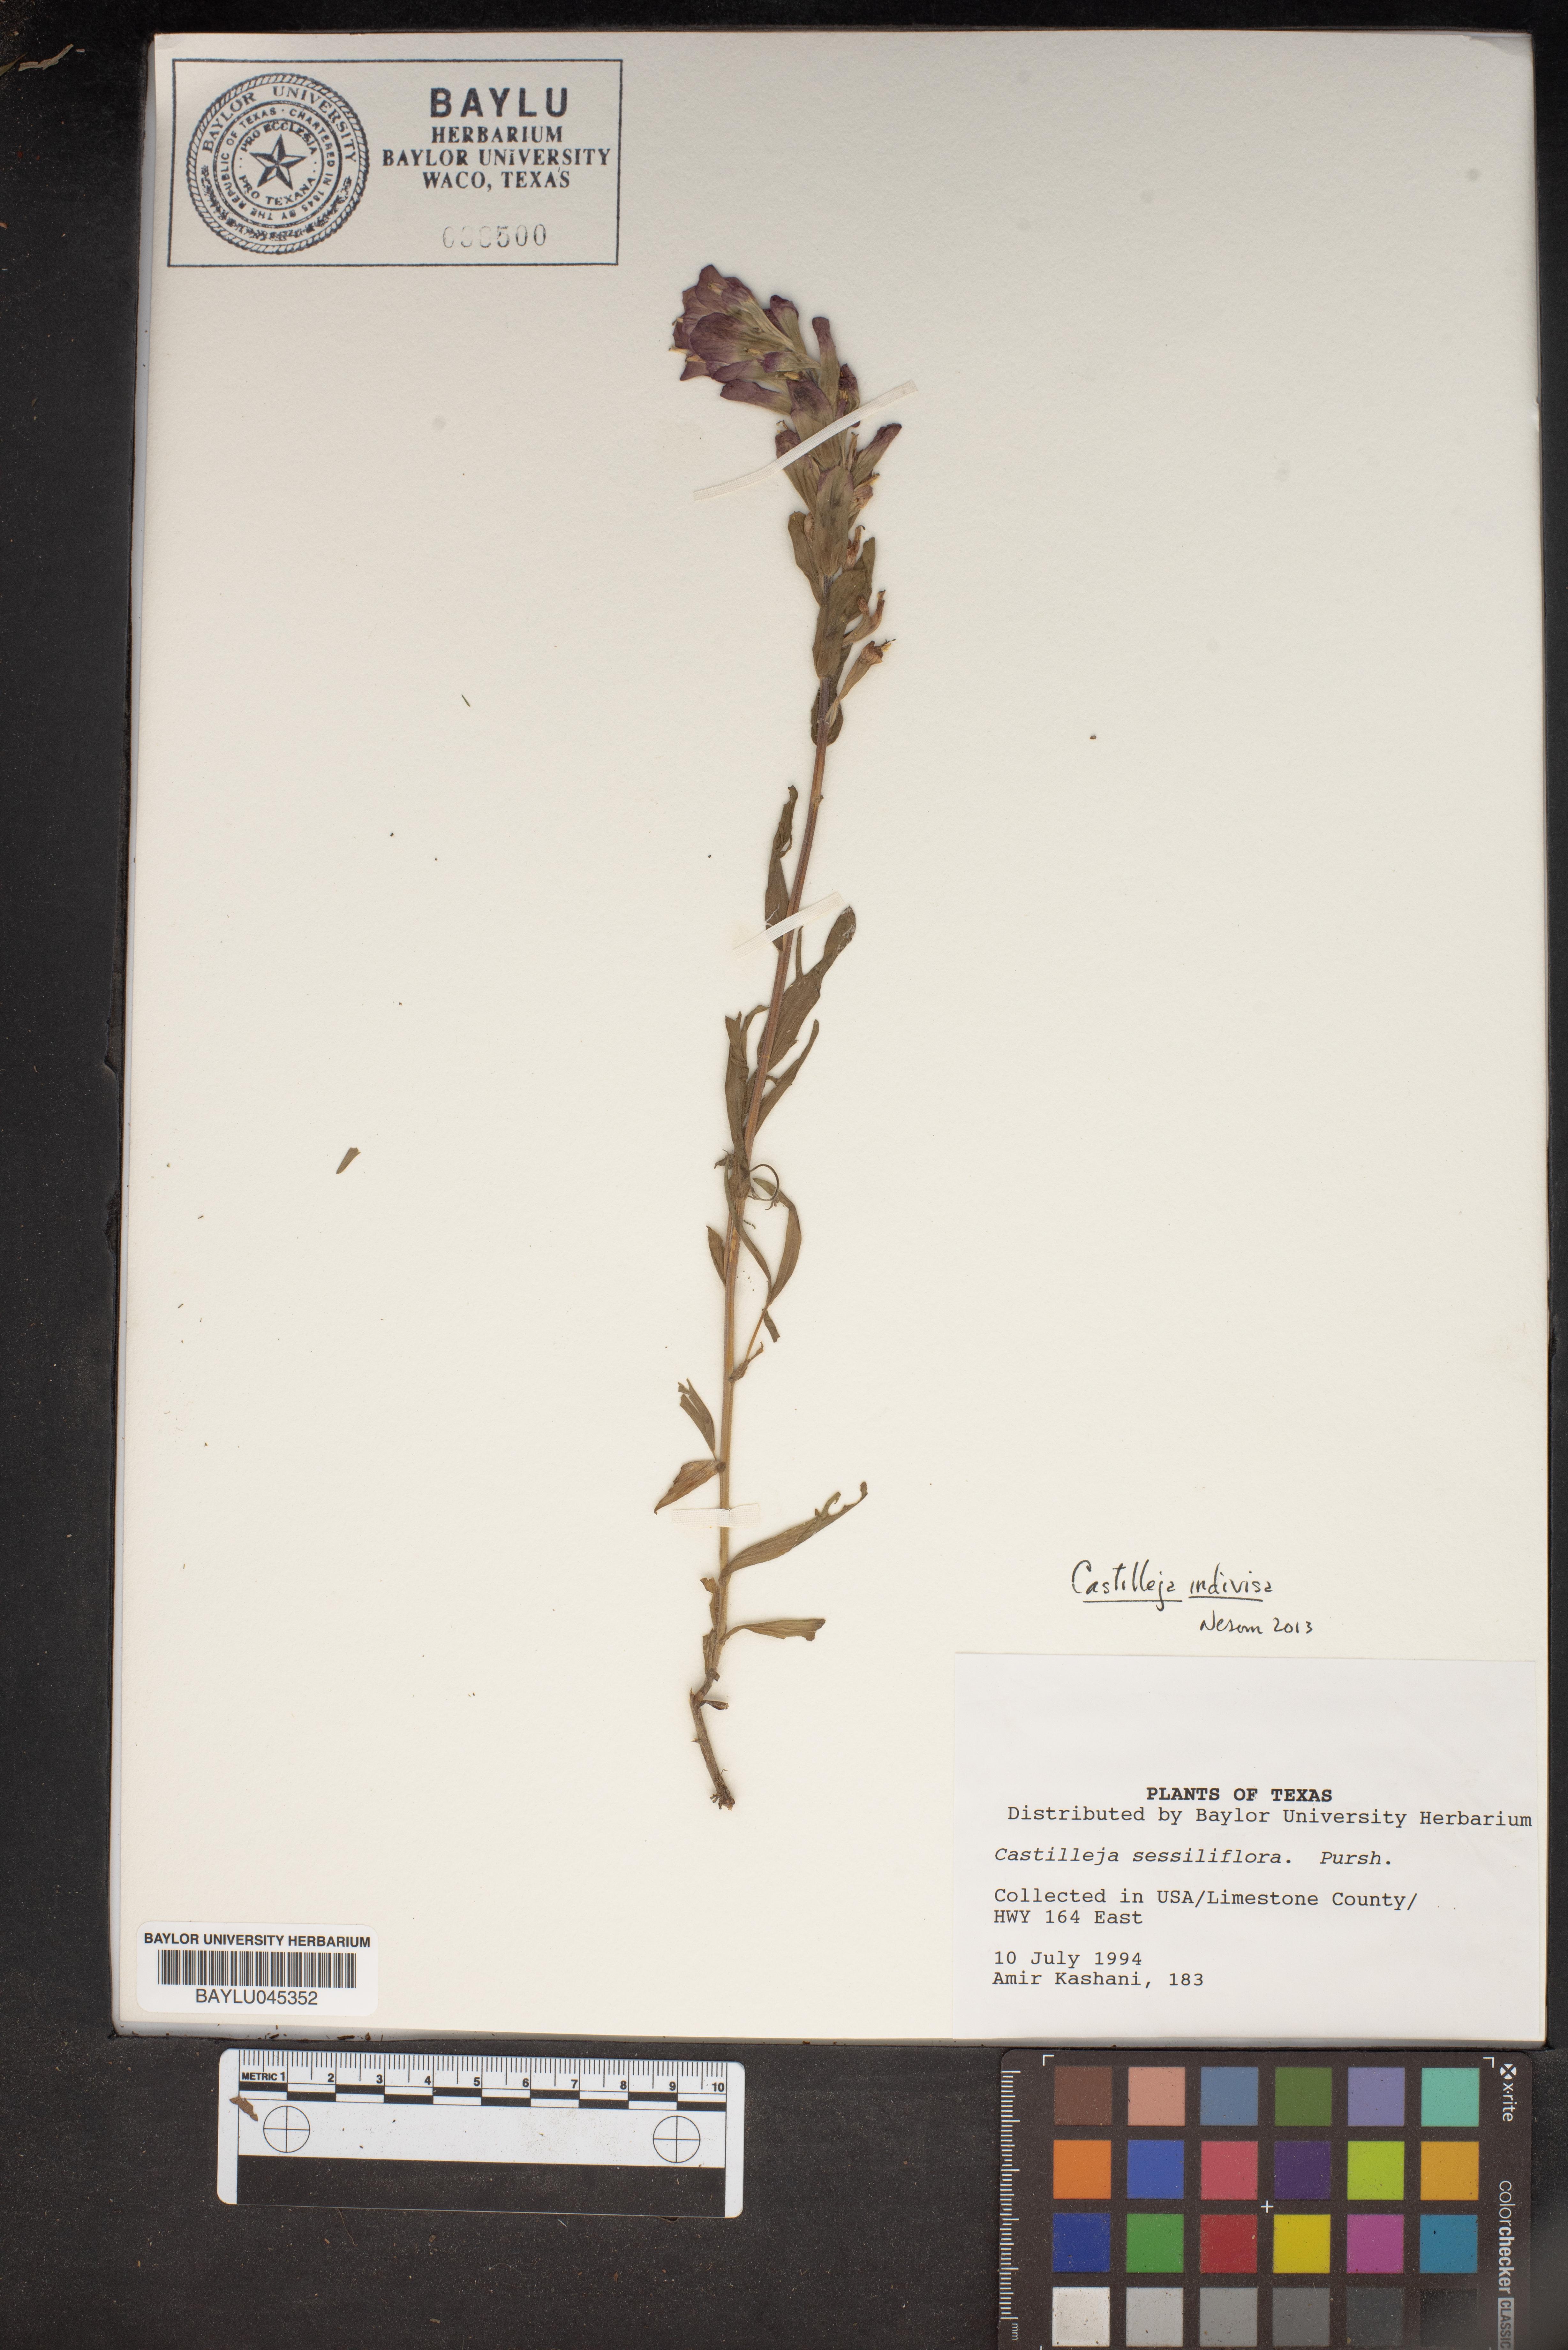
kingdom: Plantae
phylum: Tracheophyta
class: Magnoliopsida
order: Lamiales
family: Orobanchaceae
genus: Castilleja
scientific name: Castilleja sessiliflora
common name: Downy paintbrush
